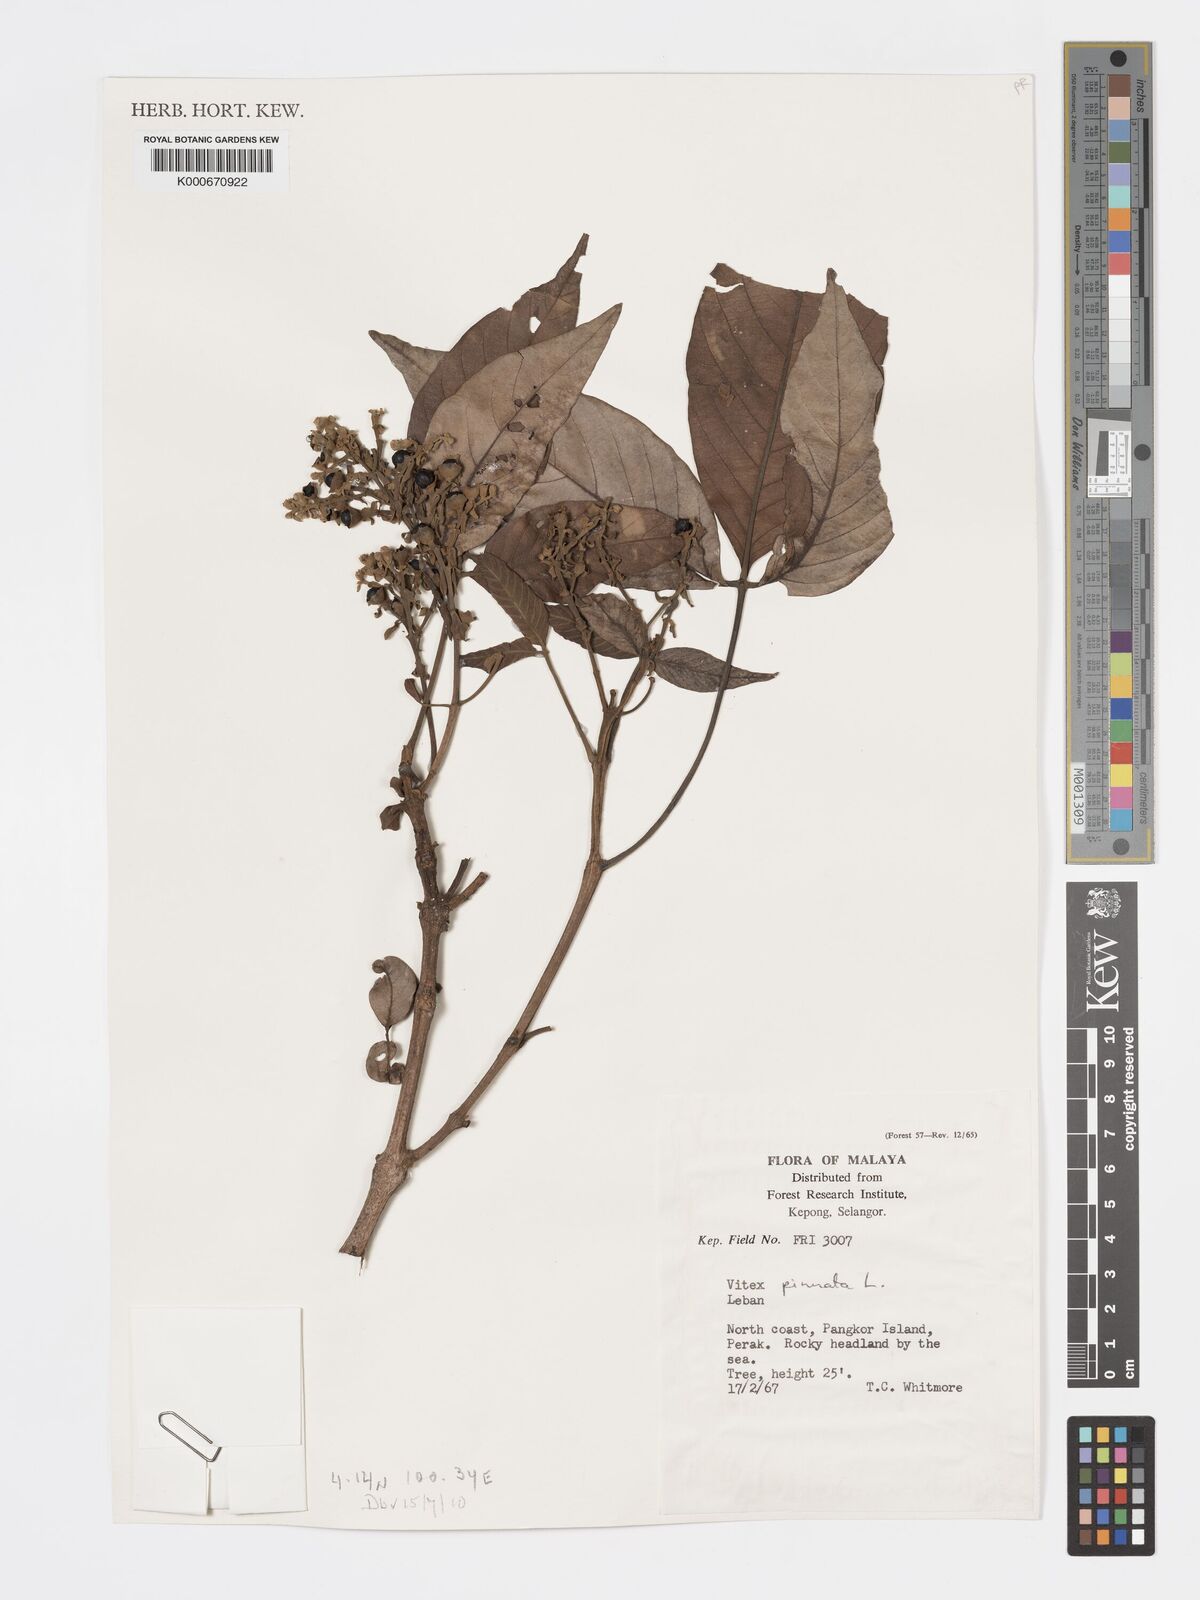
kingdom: Plantae
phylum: Tracheophyta
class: Magnoliopsida
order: Lamiales
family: Lamiaceae
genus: Vitex
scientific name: Vitex pinnata
